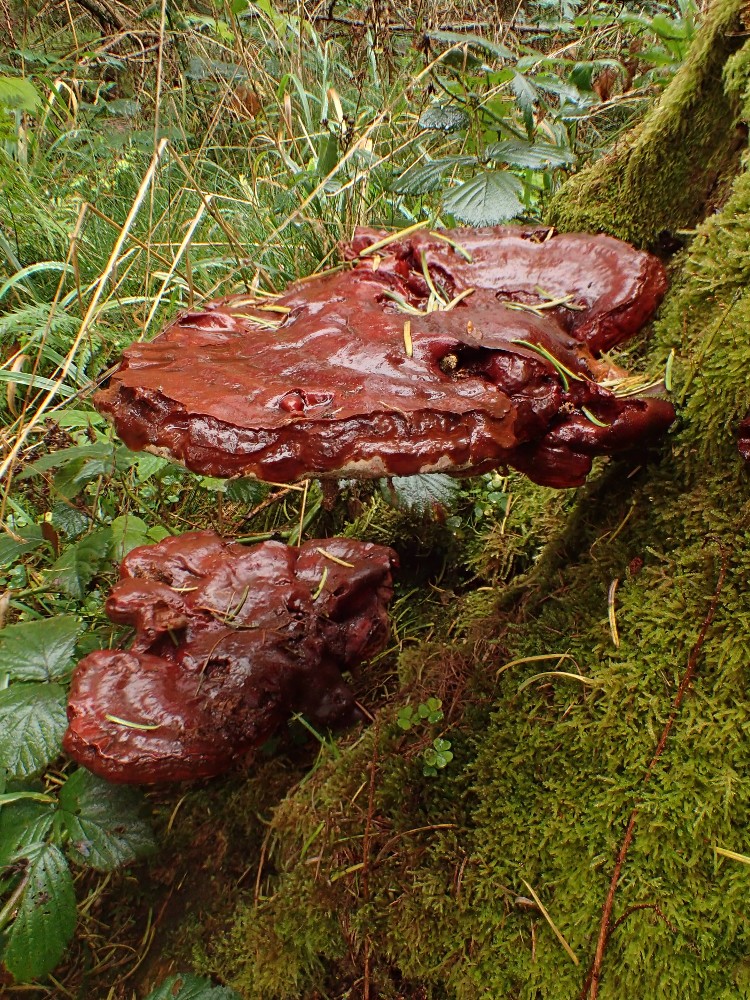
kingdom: Fungi
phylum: Basidiomycota
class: Agaricomycetes
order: Polyporales
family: Polyporaceae
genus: Ganoderma
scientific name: Ganoderma lucidum
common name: skinnende lakporesvamp
